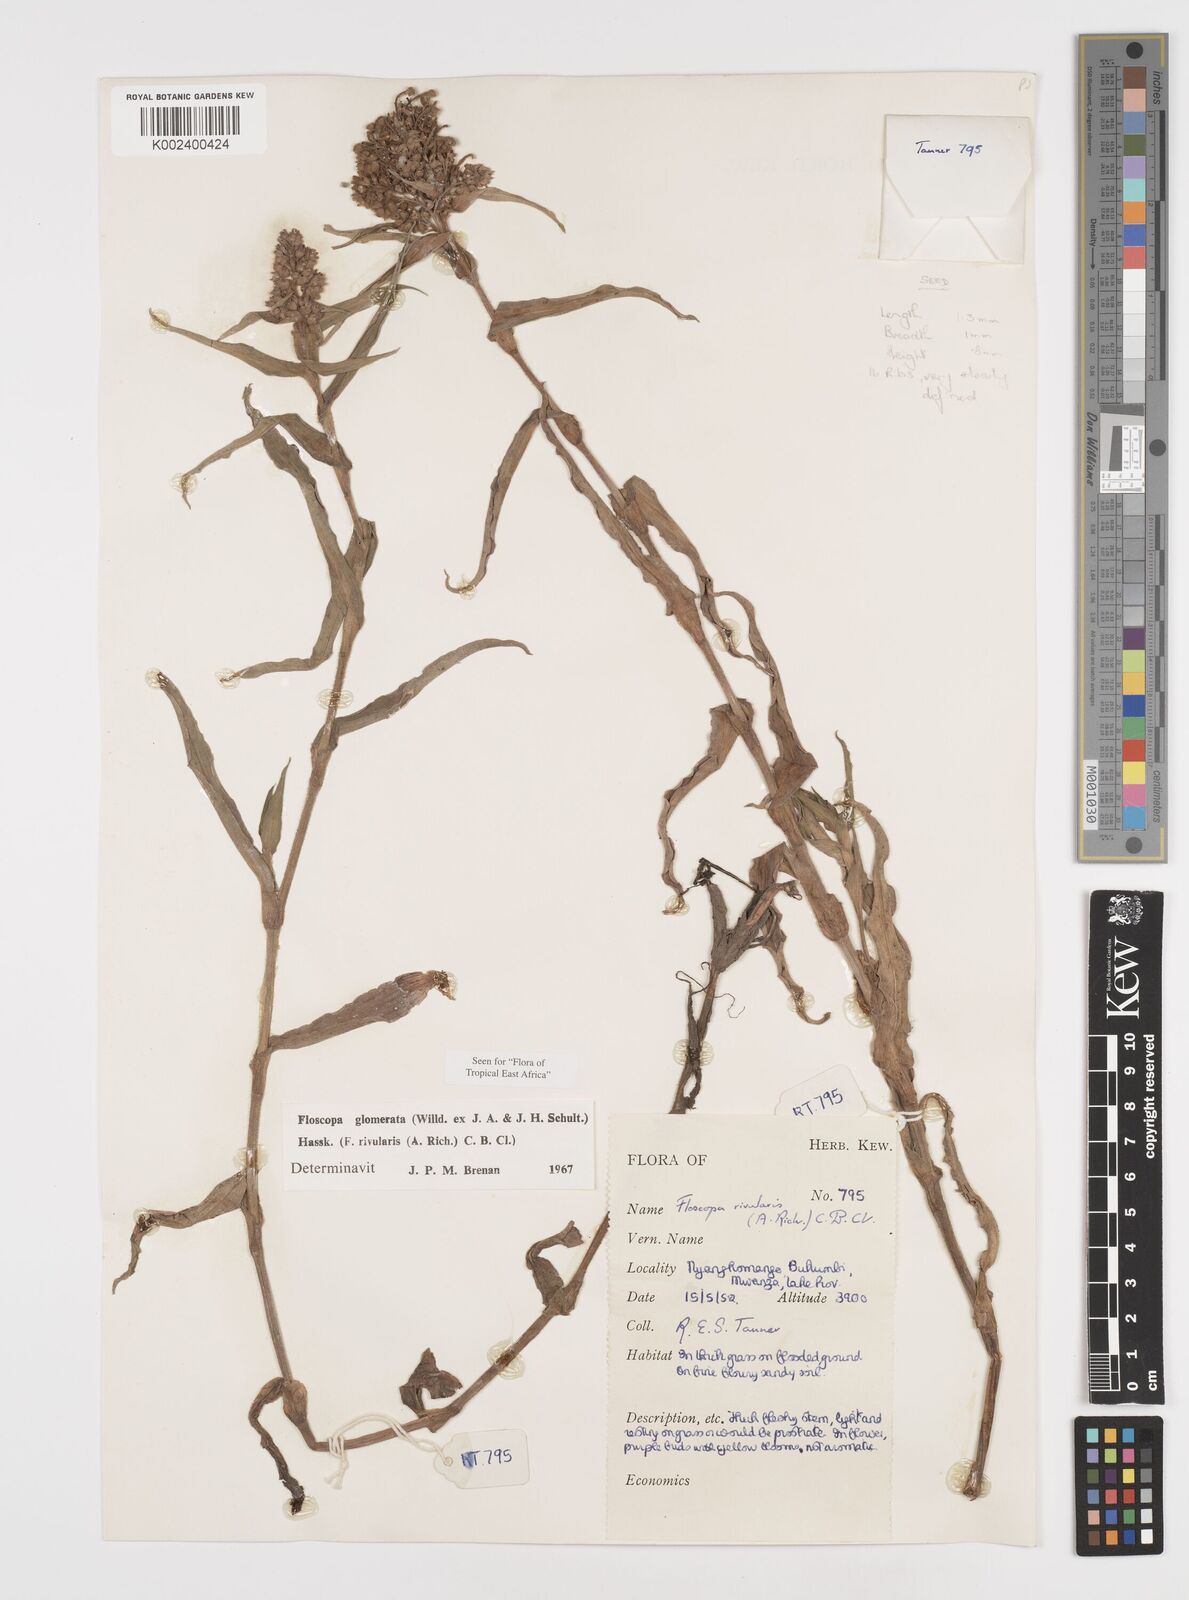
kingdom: Plantae
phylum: Tracheophyta
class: Liliopsida
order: Commelinales
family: Commelinaceae
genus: Floscopa
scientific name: Floscopa glomerata
